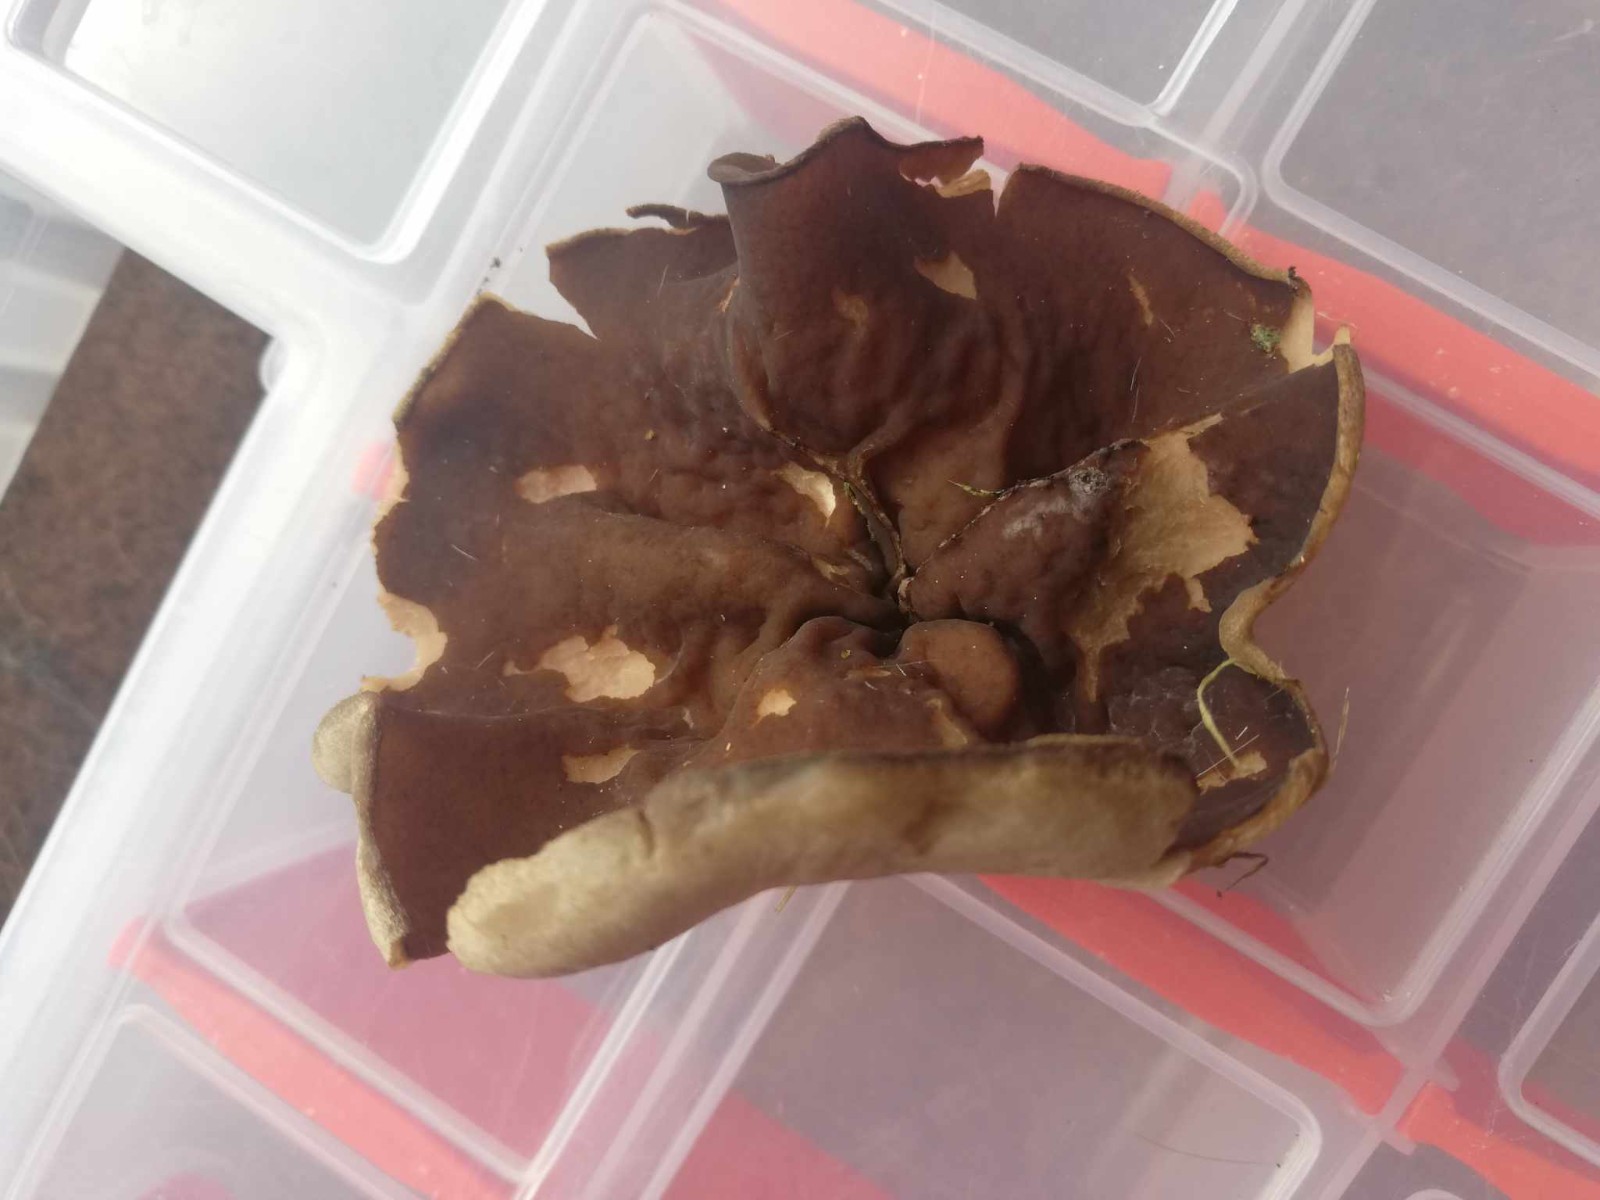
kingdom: Fungi
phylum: Ascomycota
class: Pezizomycetes
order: Pezizales
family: Morchellaceae
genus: Disciotis
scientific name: Disciotis venosa
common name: klor-bægermorkel
